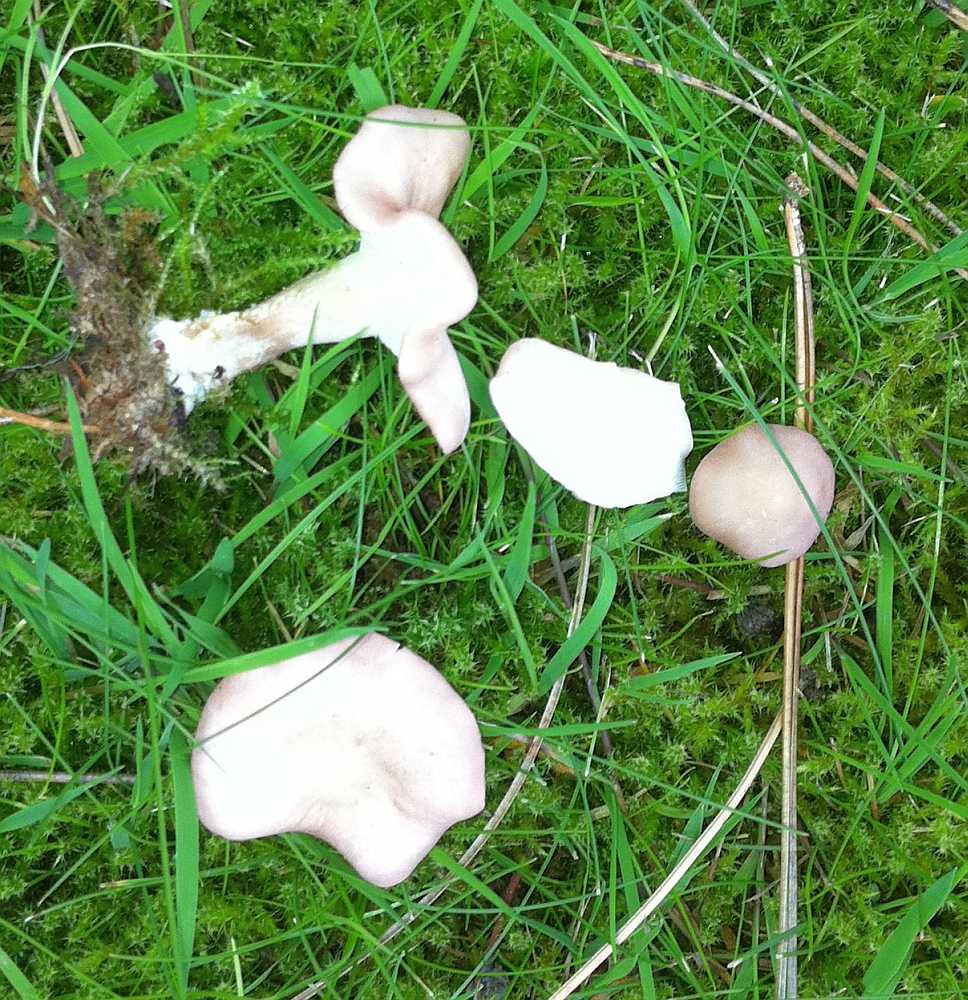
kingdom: Fungi
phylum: Basidiomycota
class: Agaricomycetes
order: Agaricales
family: Lyophyllaceae
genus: Calocybe
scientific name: Calocybe carnea
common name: rosa fagerhat
